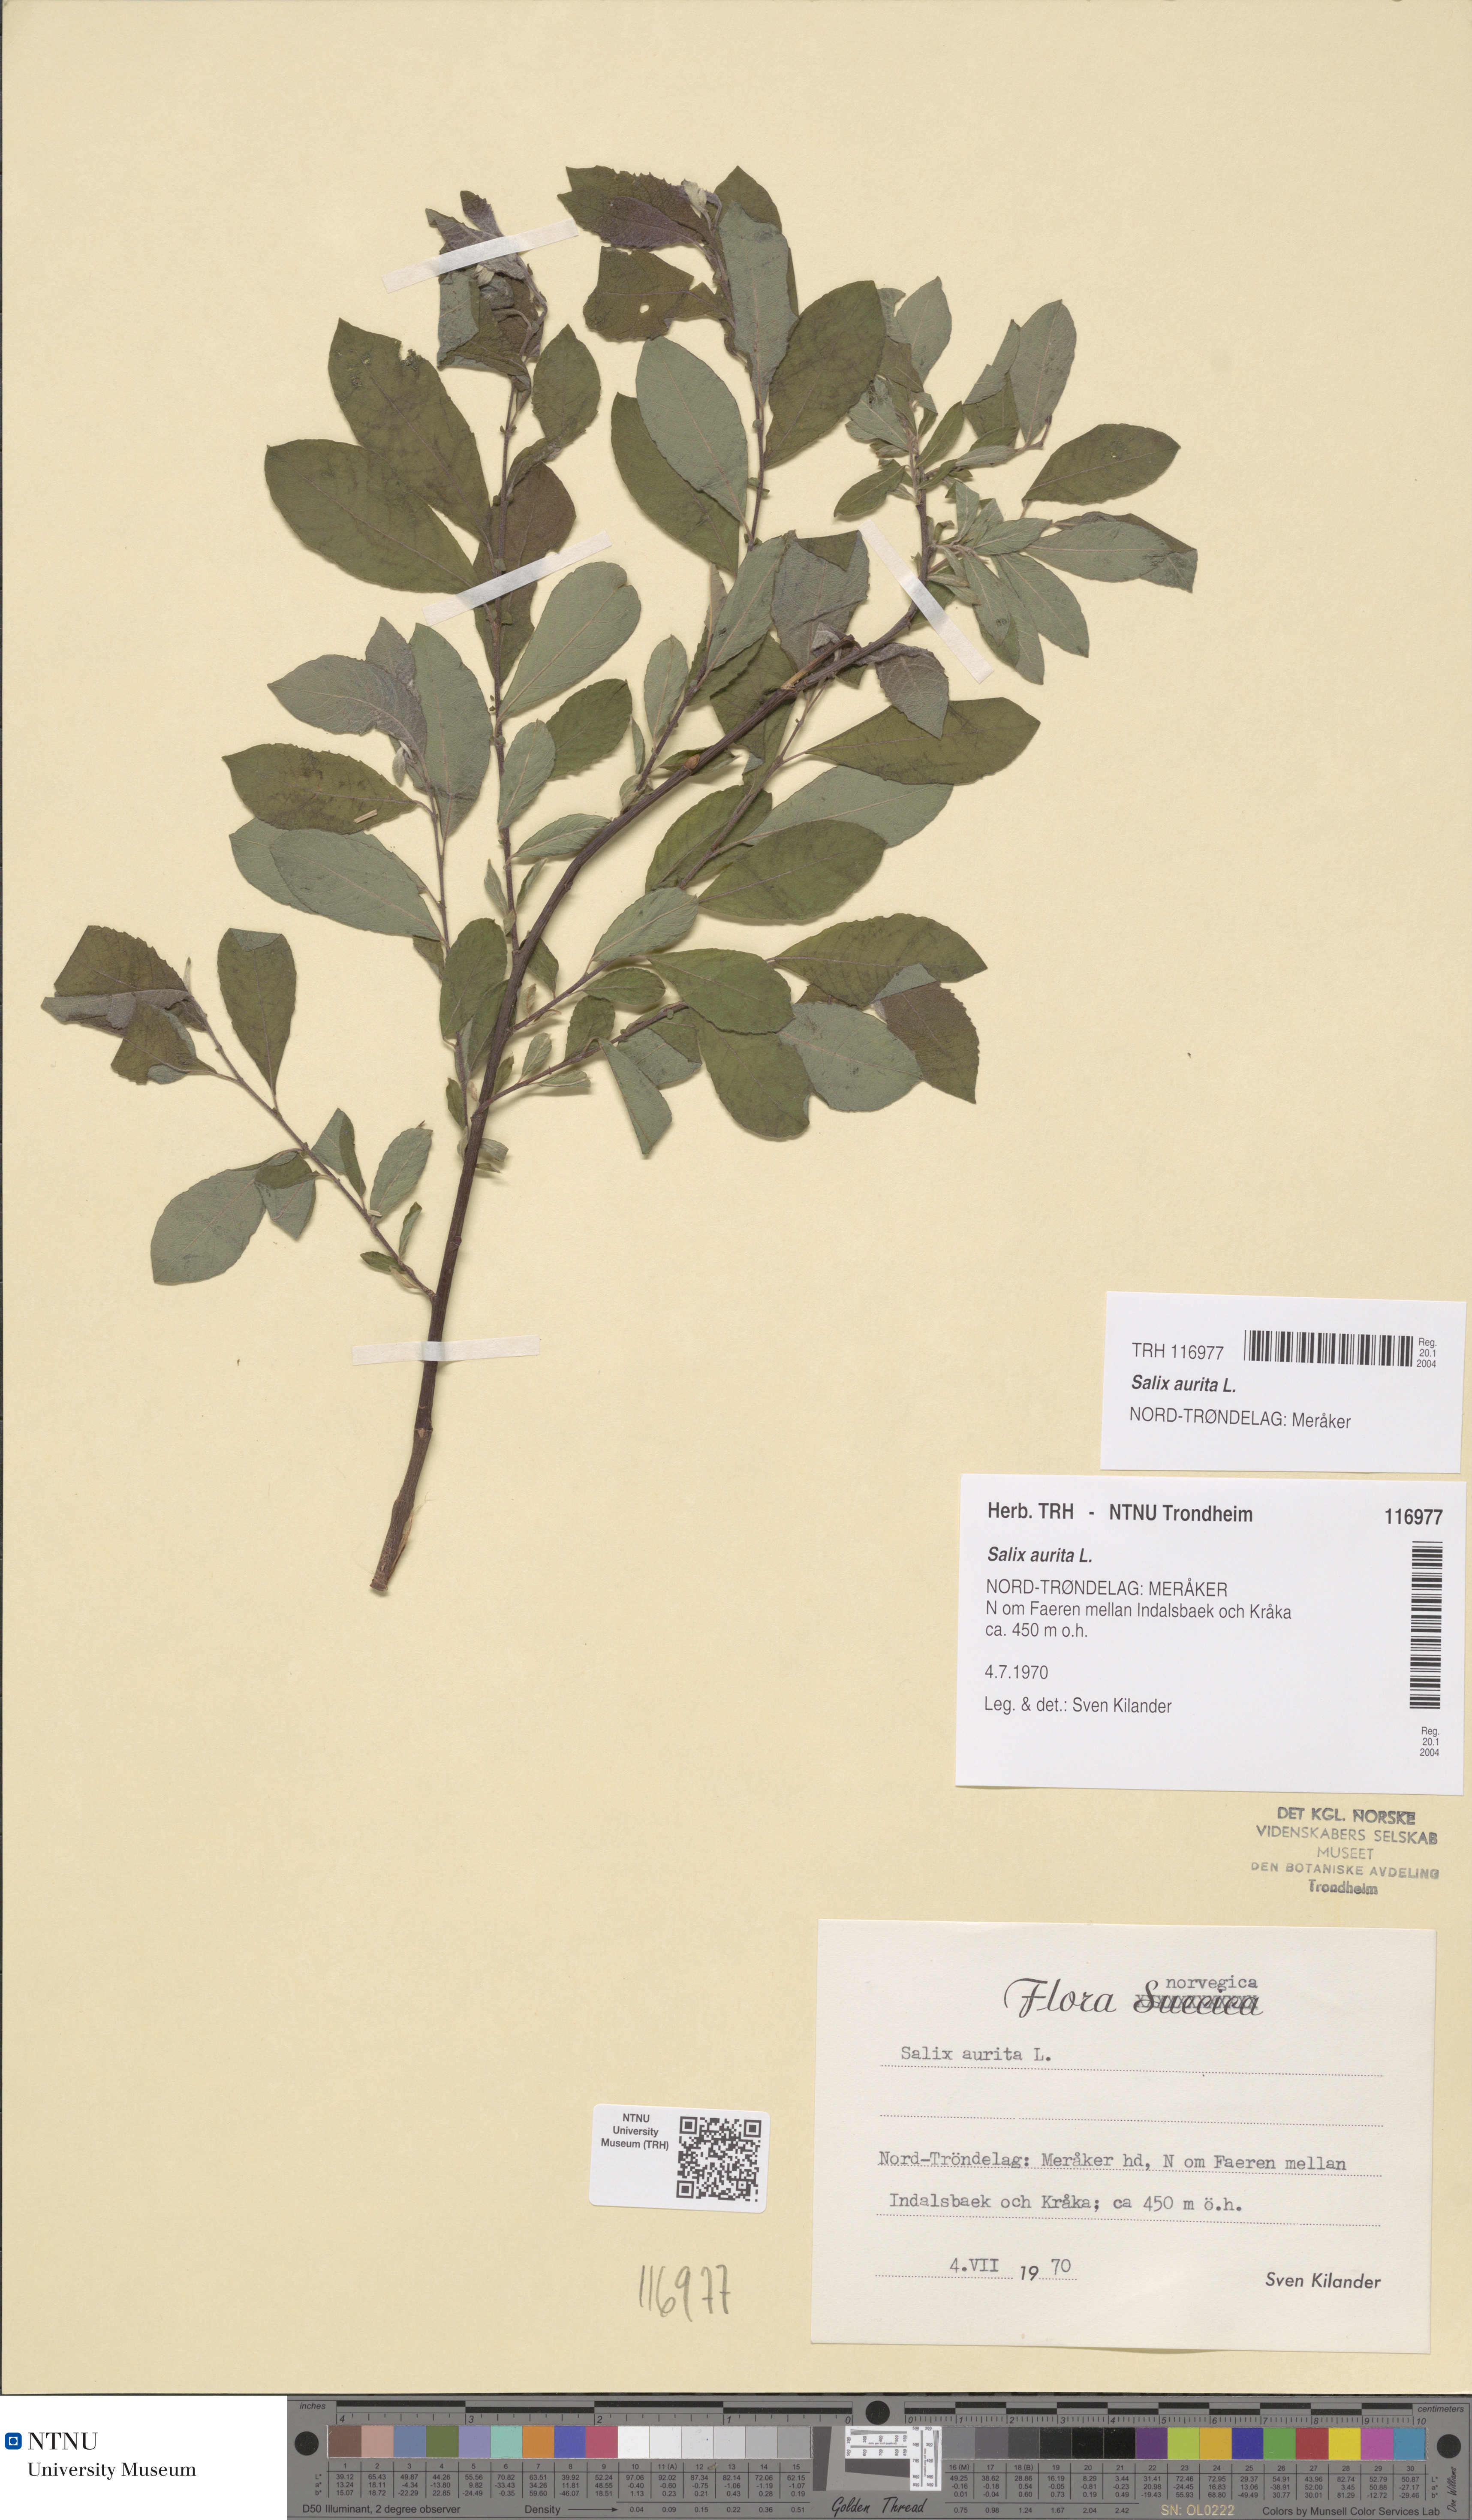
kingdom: Plantae
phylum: Tracheophyta
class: Magnoliopsida
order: Malpighiales
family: Salicaceae
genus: Salix
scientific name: Salix aurita
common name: Eared willow
